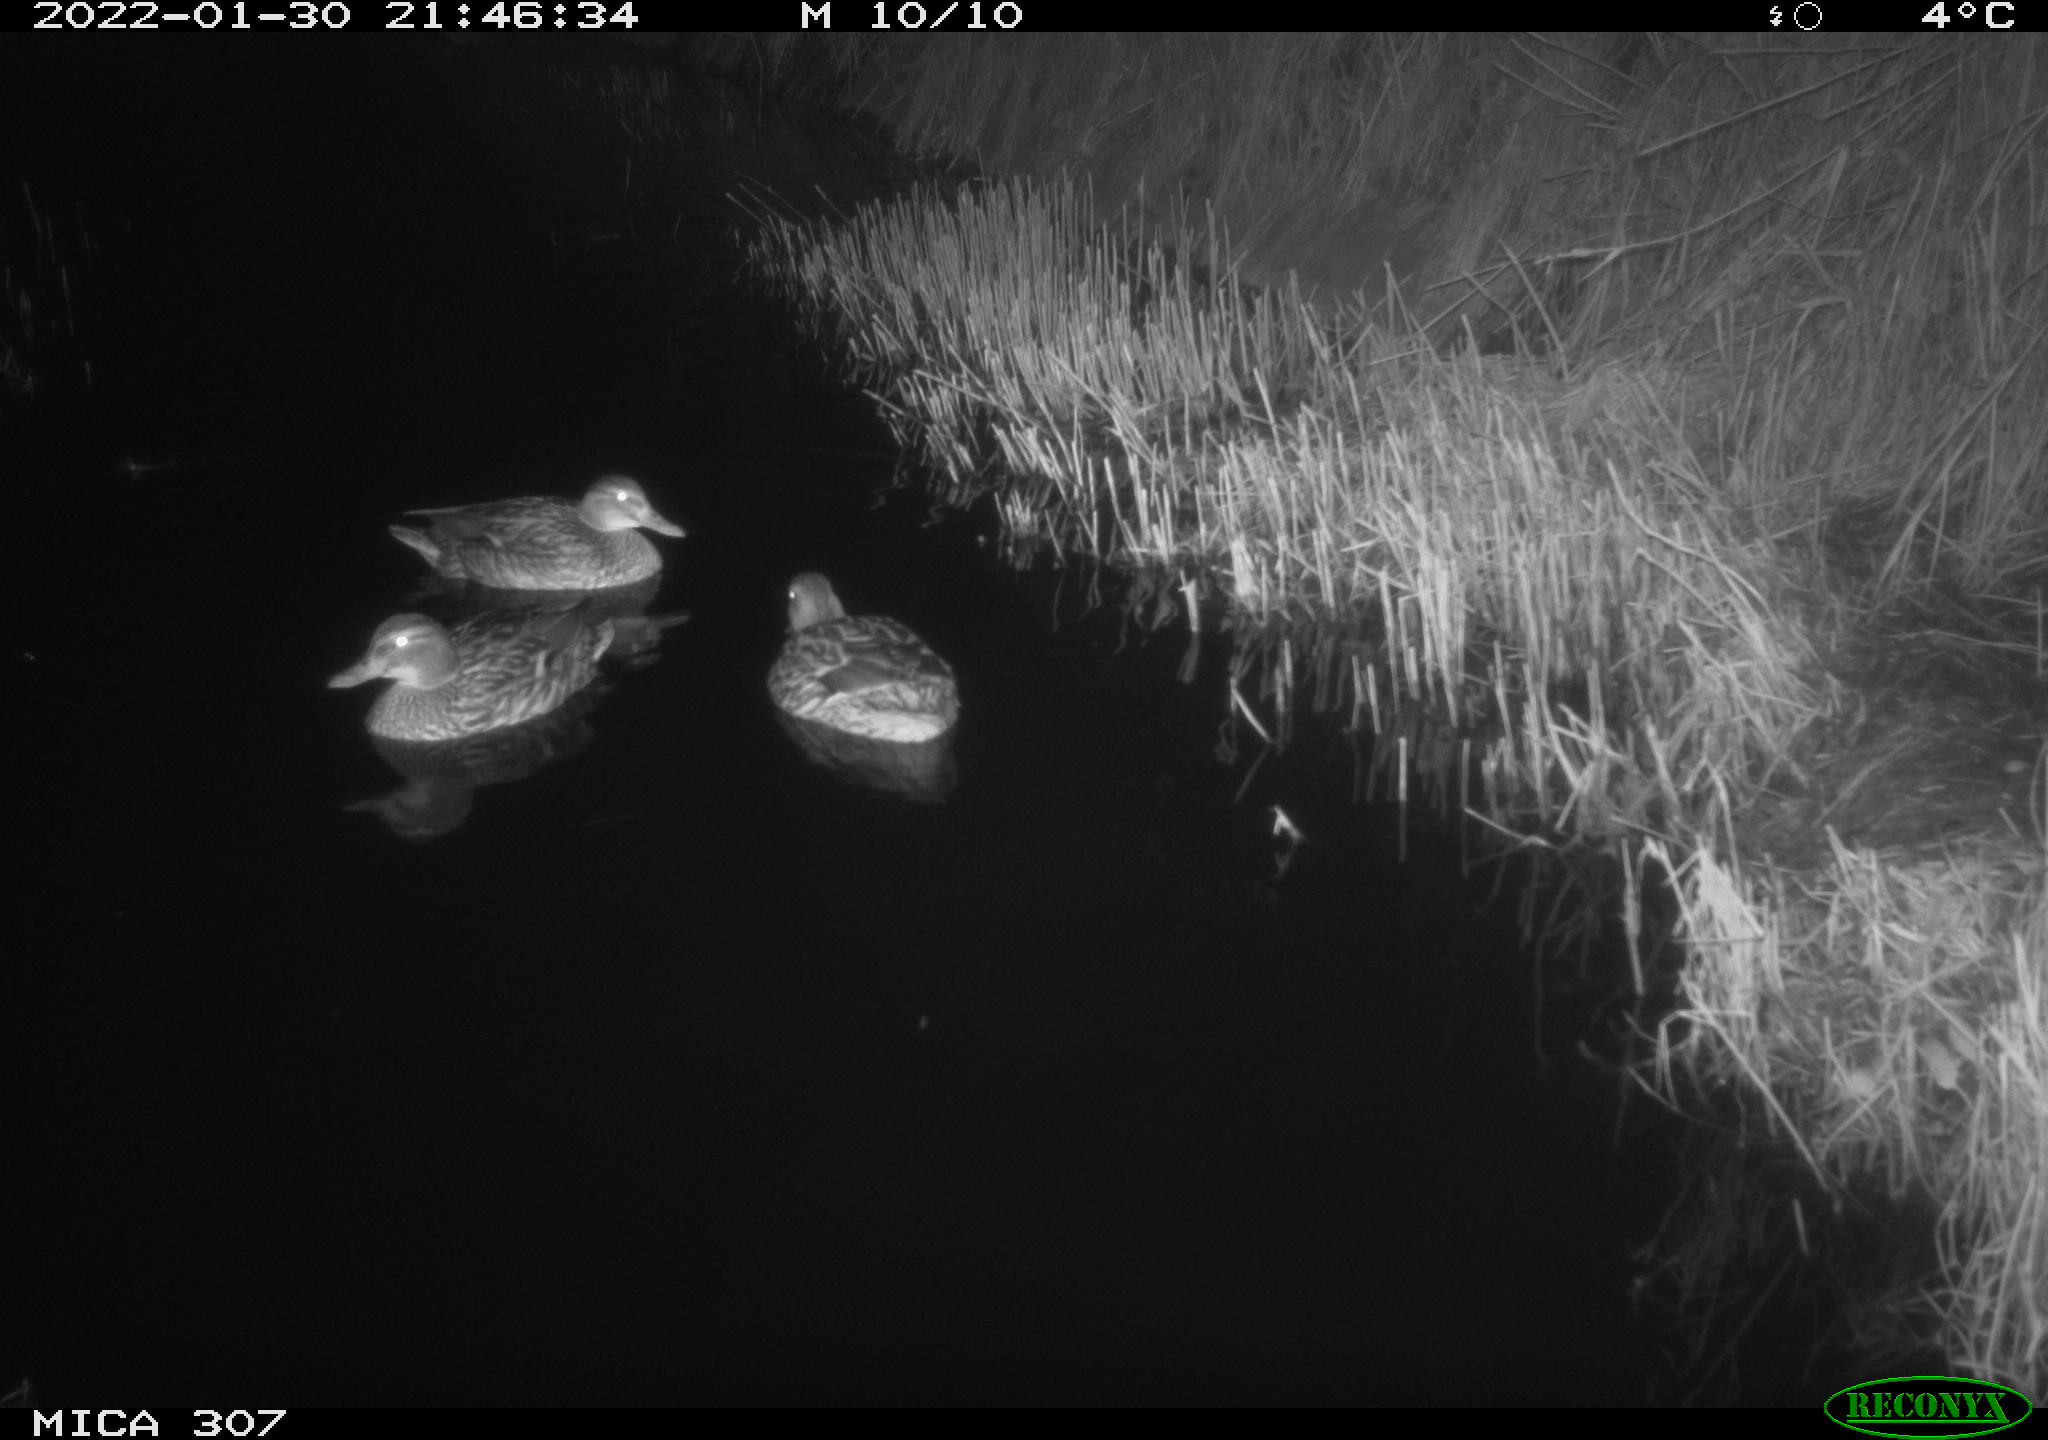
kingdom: Animalia
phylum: Chordata
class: Aves
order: Anseriformes
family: Anatidae
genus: Anas
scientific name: Anas
